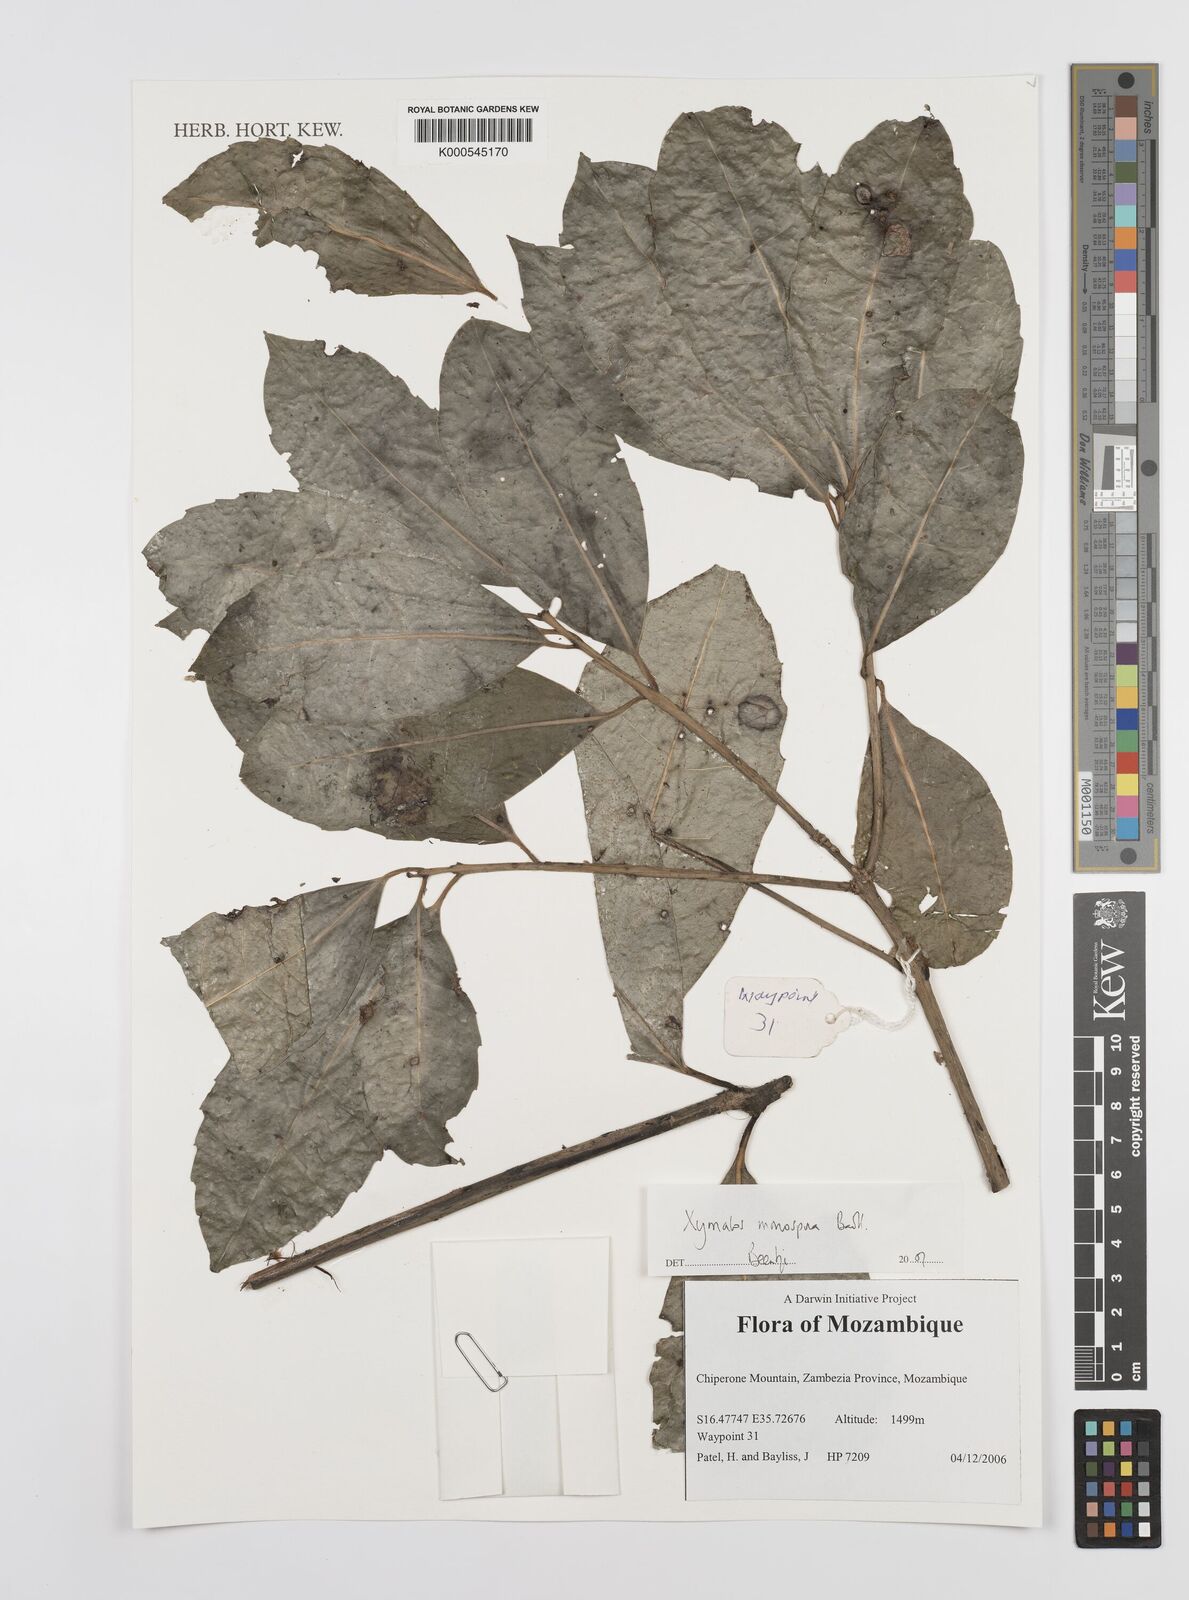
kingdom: Plantae
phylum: Tracheophyta
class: Magnoliopsida
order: Laurales
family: Monimiaceae
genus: Xymalos
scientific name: Xymalos
